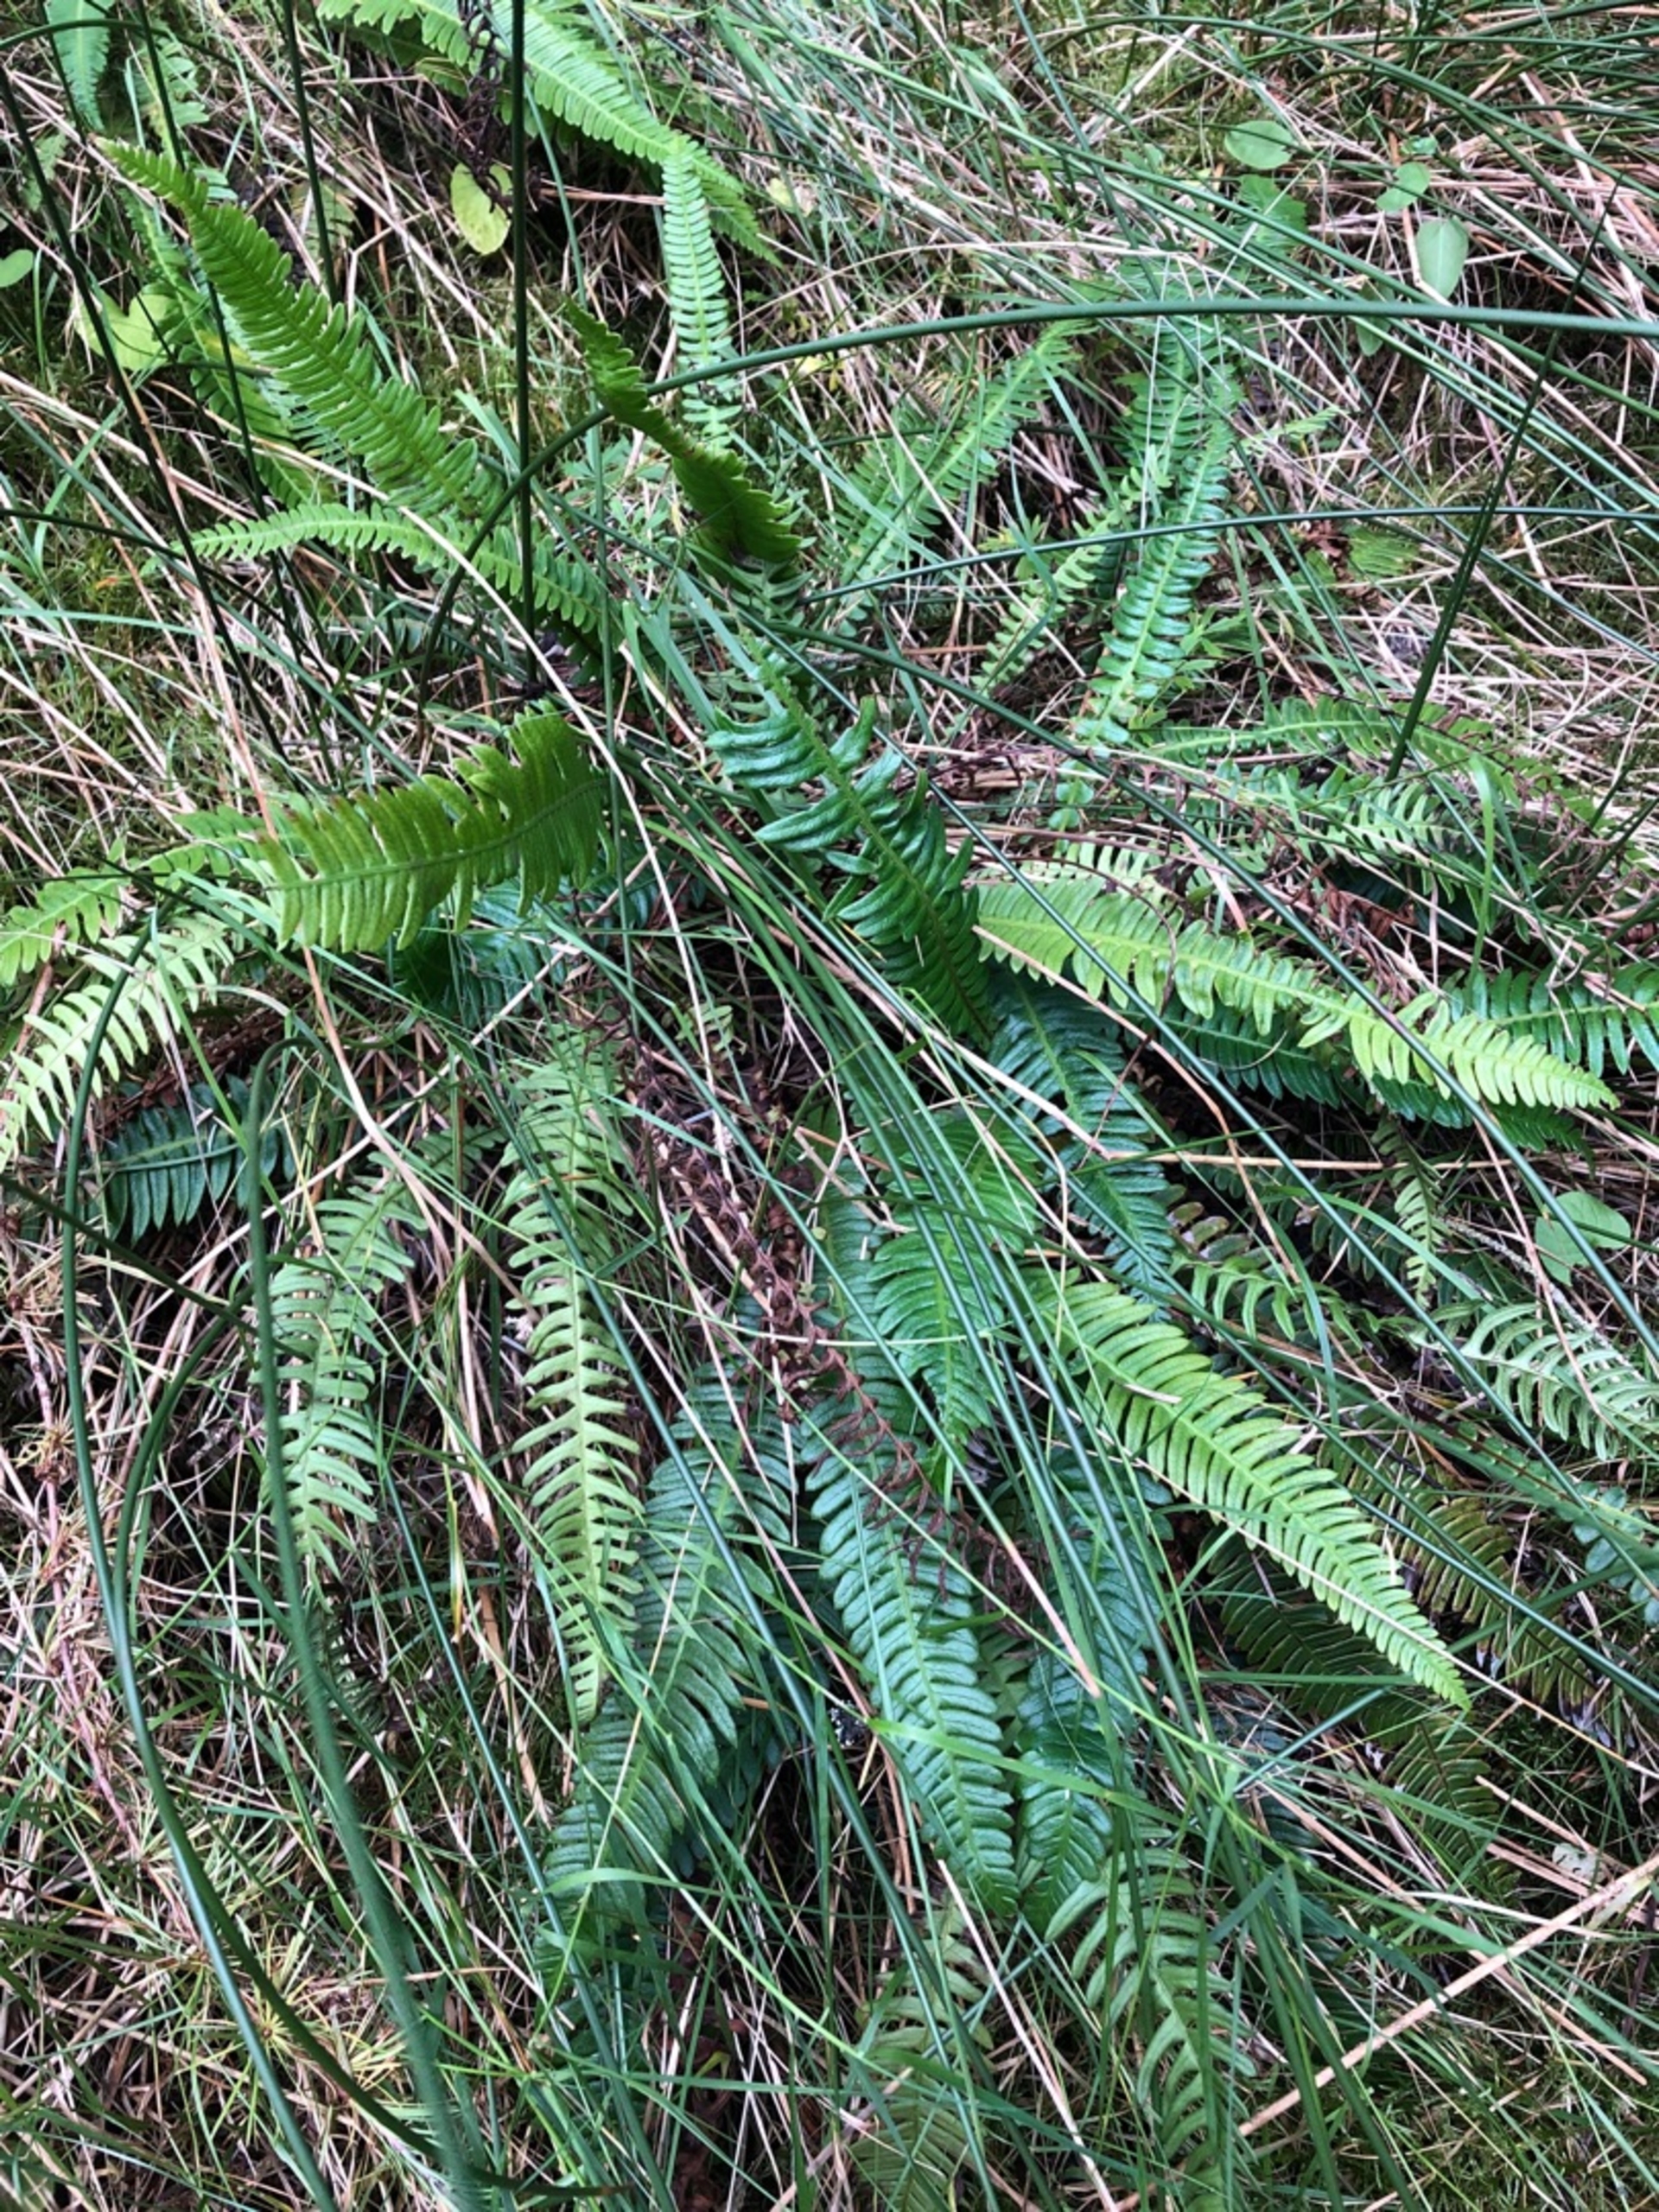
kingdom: Plantae
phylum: Tracheophyta
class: Polypodiopsida
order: Polypodiales
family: Blechnaceae
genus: Struthiopteris
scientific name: Struthiopteris spicant
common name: Kambregne
